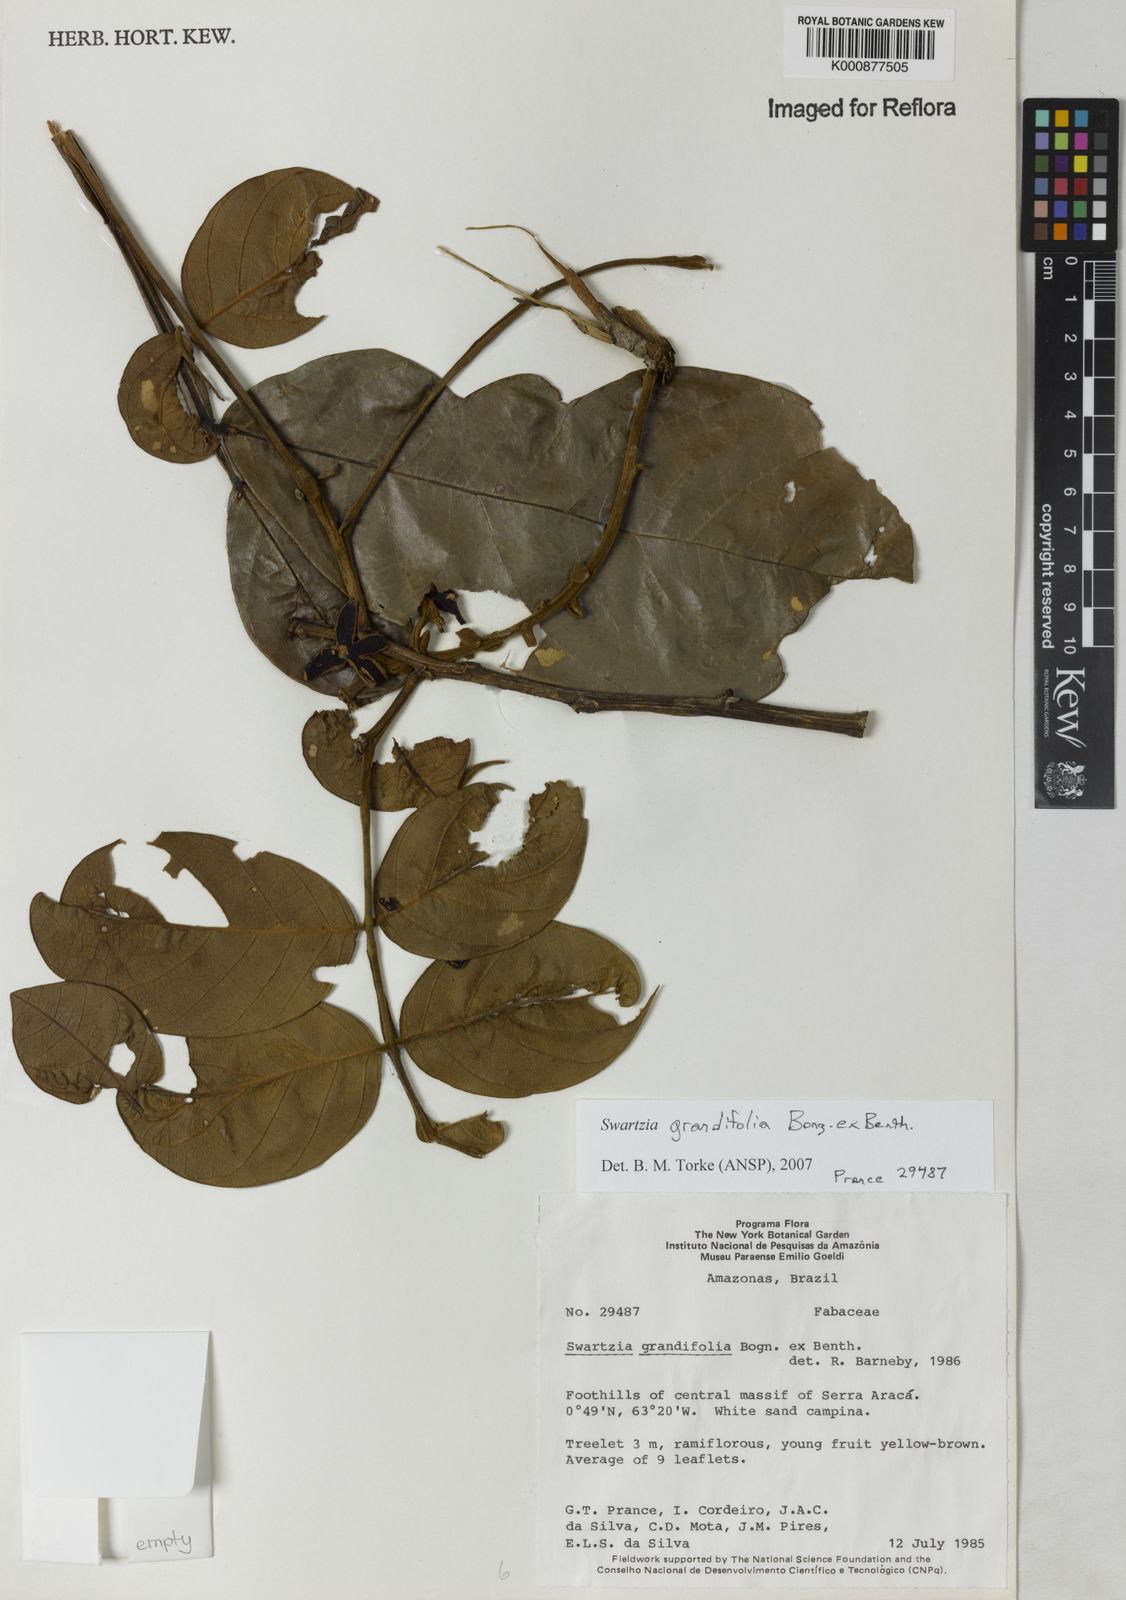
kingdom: Plantae
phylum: Tracheophyta
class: Magnoliopsida
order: Fabales
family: Fabaceae
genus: Swartzia
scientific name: Swartzia grandifolia
